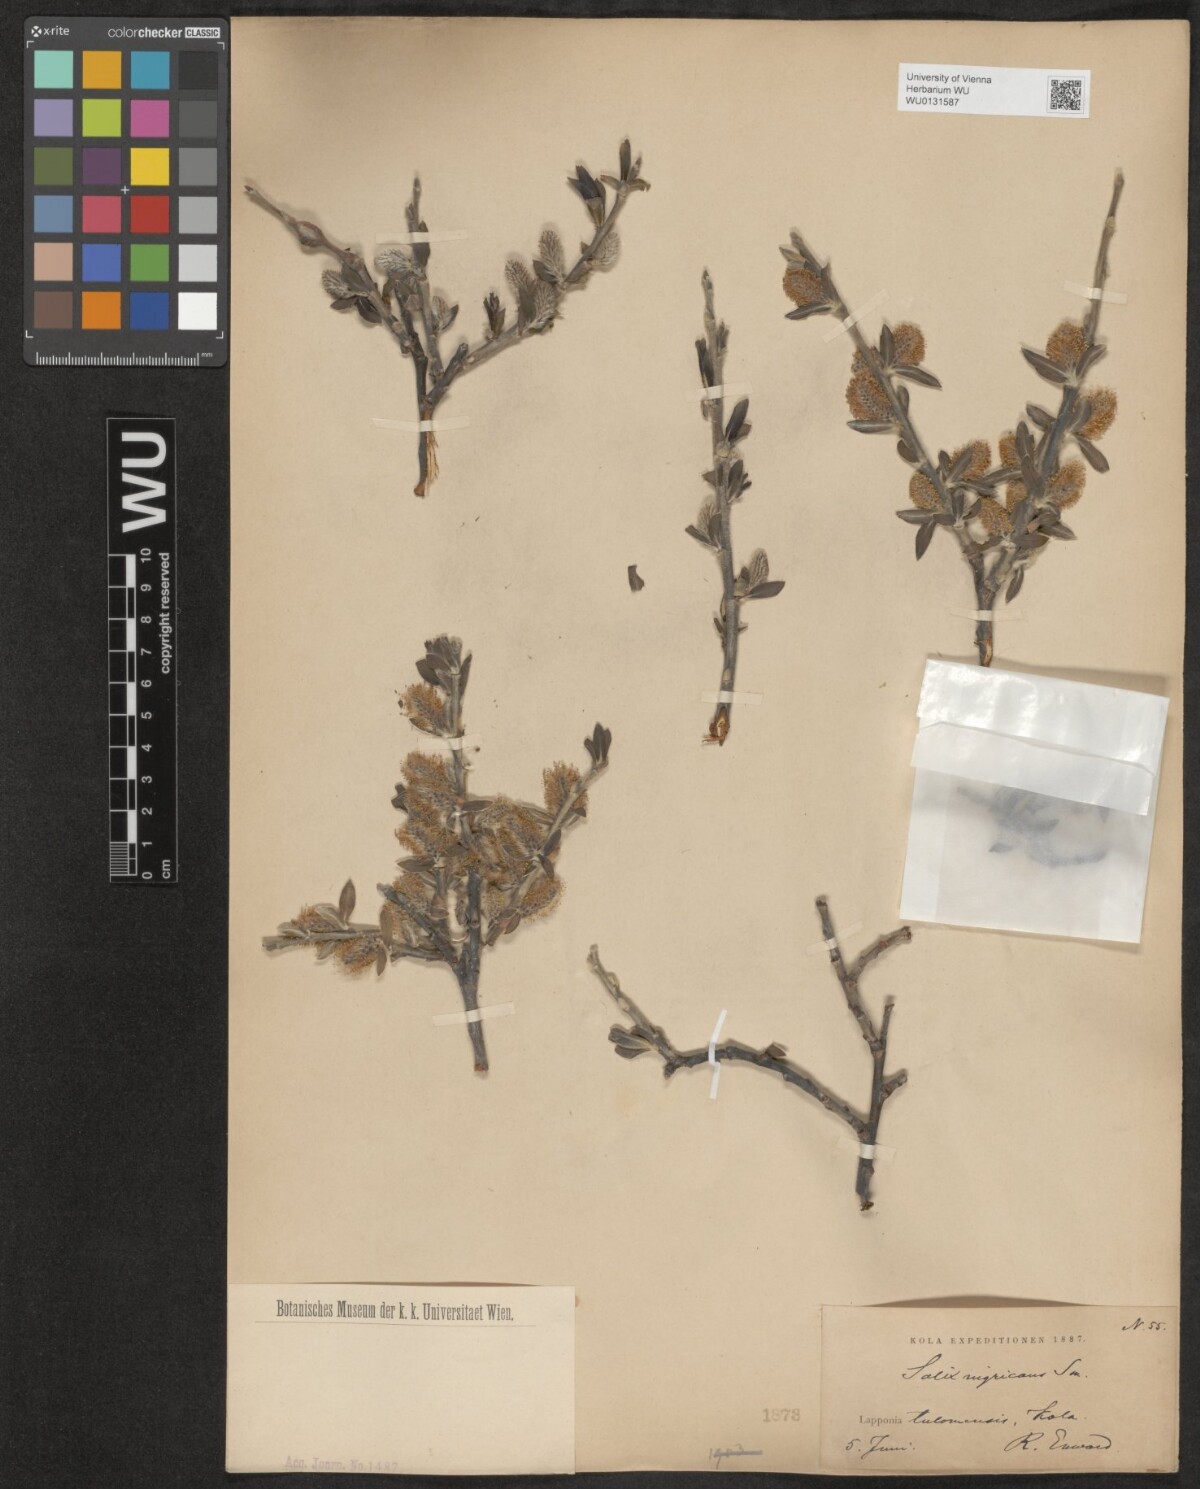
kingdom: Plantae
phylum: Tracheophyta
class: Magnoliopsida
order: Malpighiales
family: Salicaceae
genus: Salix
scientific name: Salix myrsinifolia
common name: Dark-leaved willow
